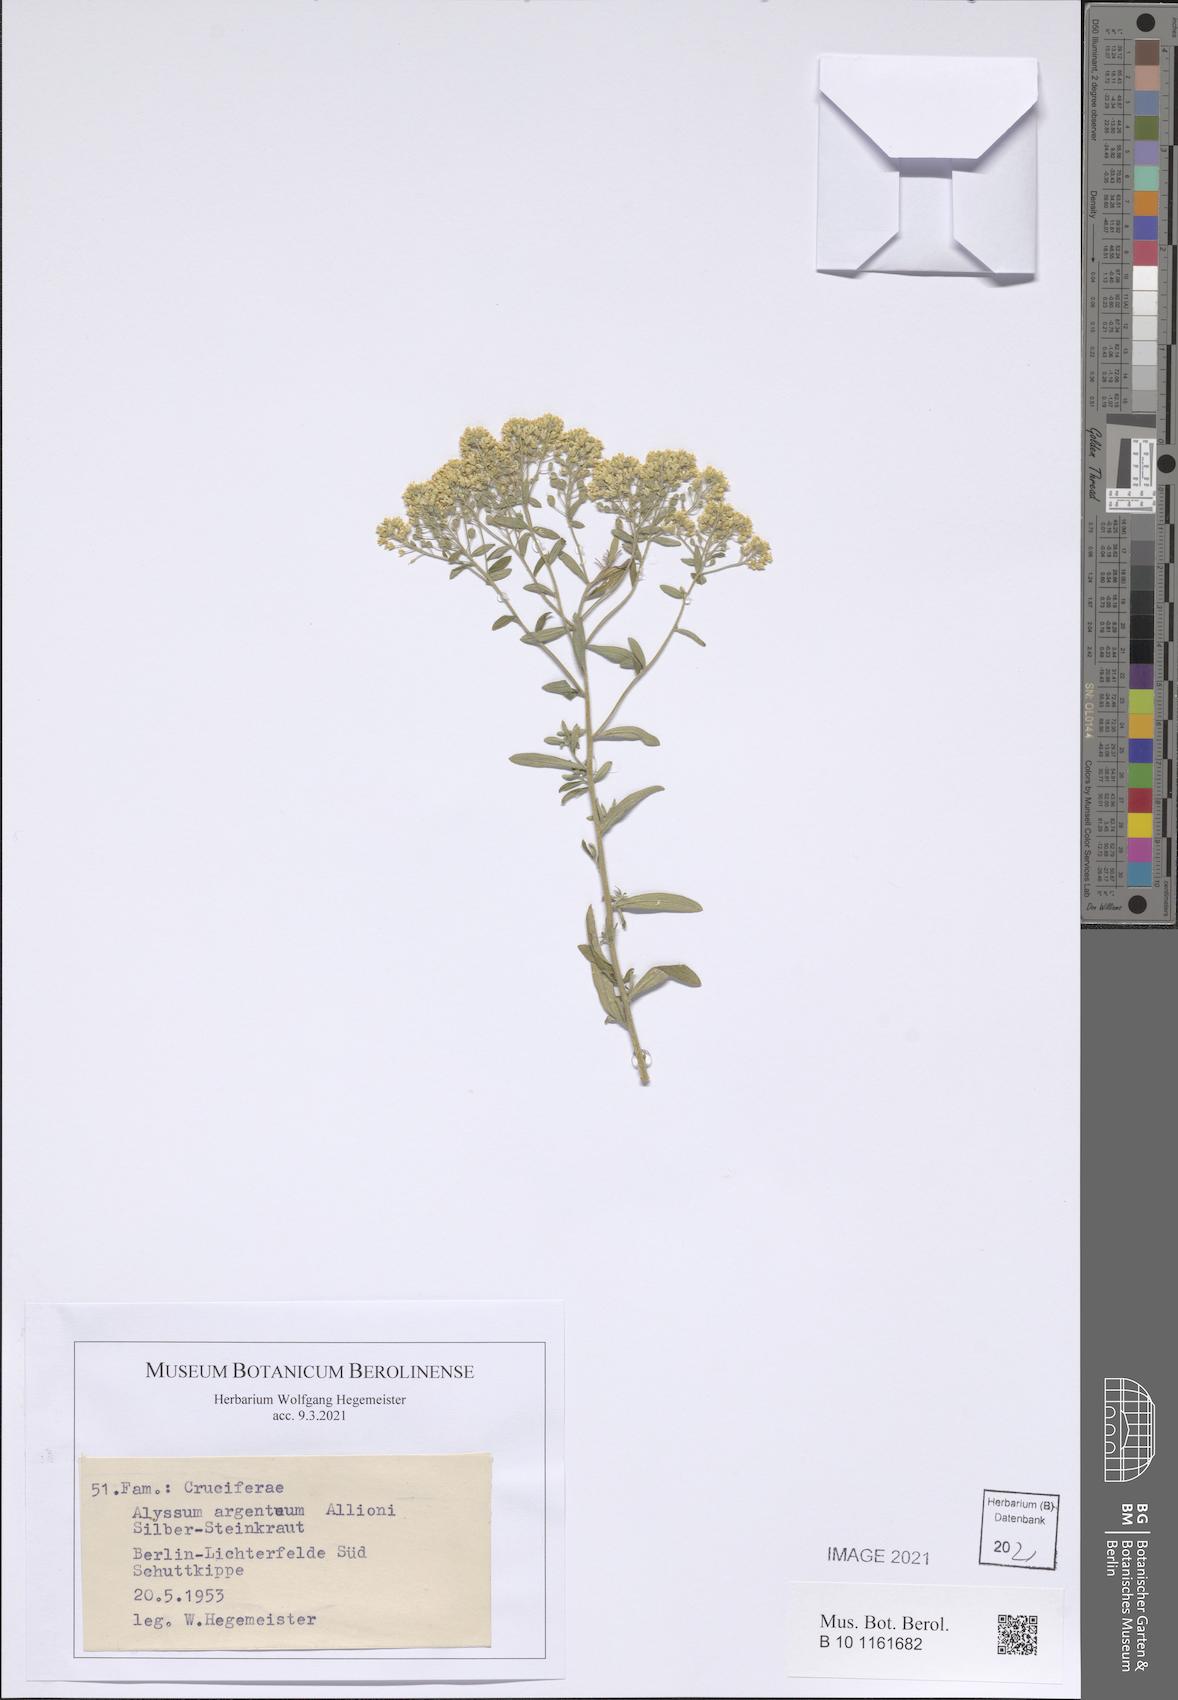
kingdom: Plantae
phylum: Tracheophyta
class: Magnoliopsida
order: Brassicales
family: Brassicaceae
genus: Odontarrhena
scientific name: Odontarrhena argentea
